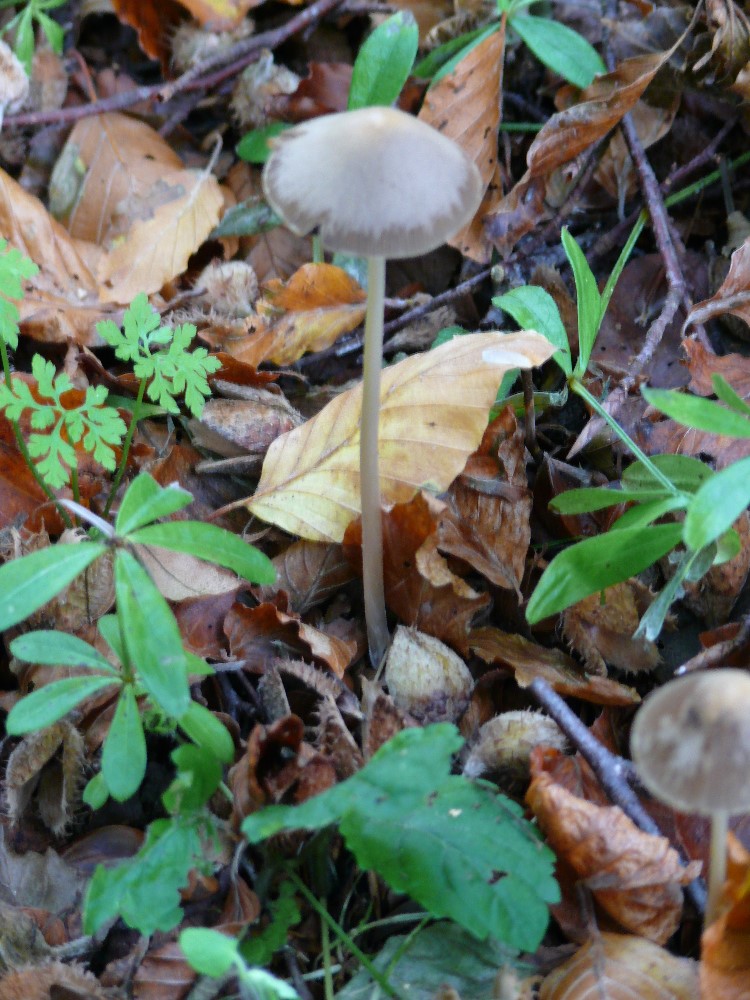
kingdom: Fungi
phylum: Basidiomycota
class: Agaricomycetes
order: Agaricales
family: Psathyrellaceae
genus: Parasola
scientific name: Parasola conopilea
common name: kegle-hjulhat
